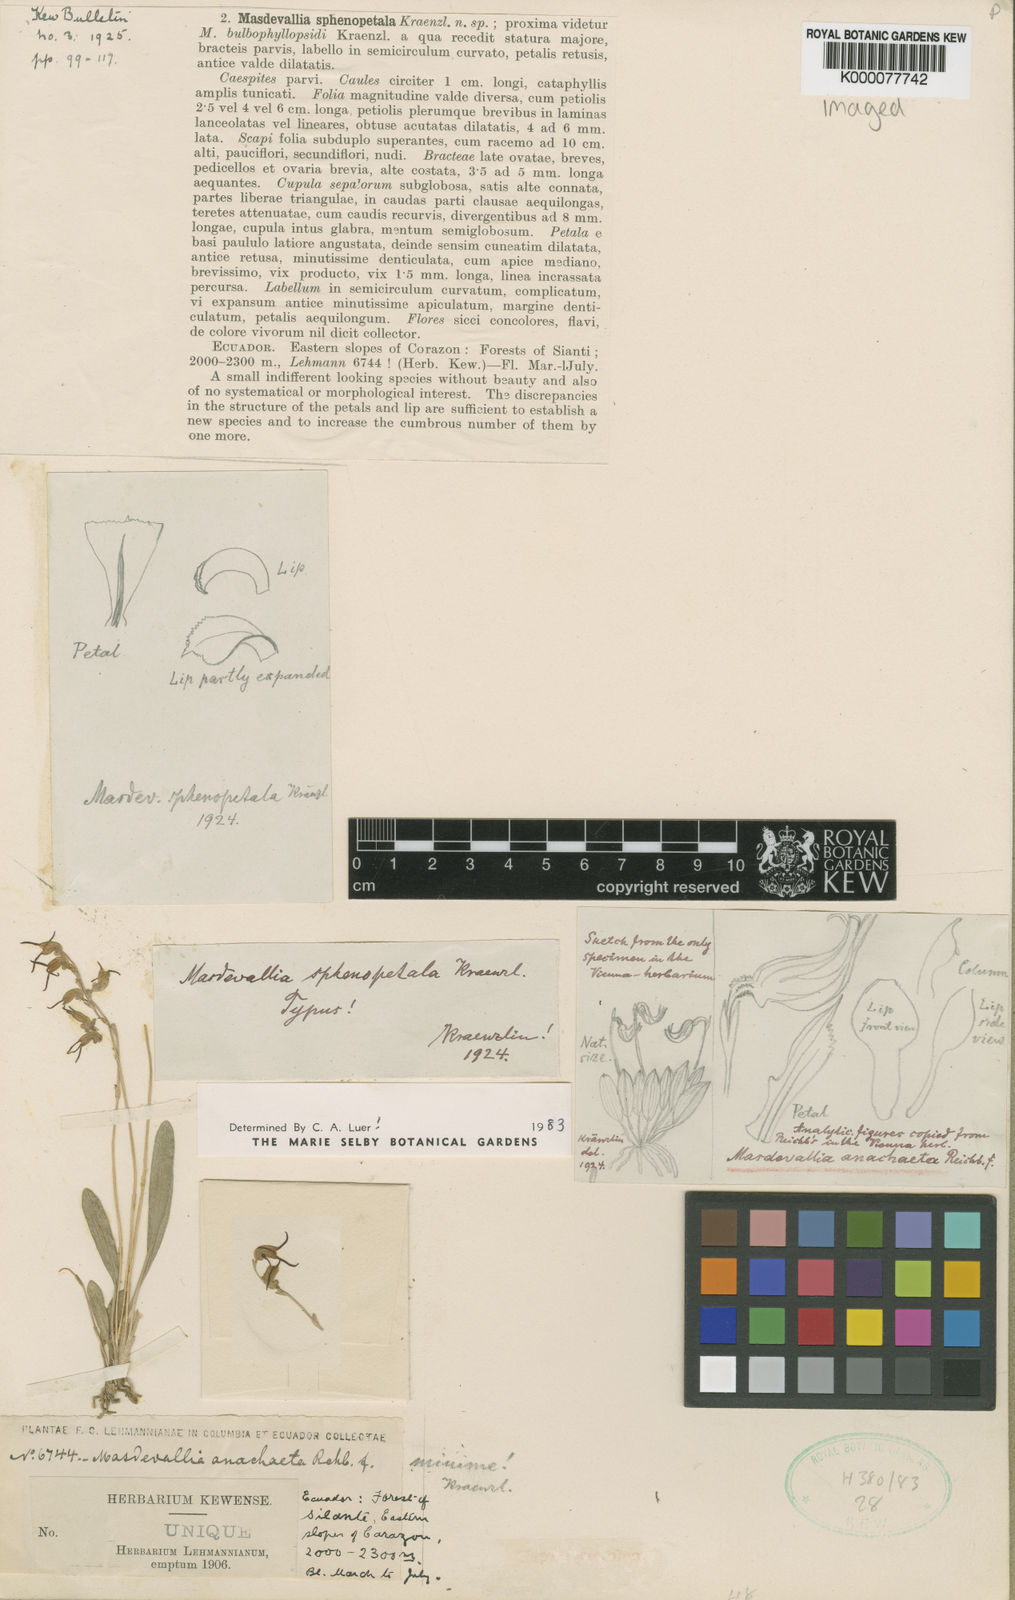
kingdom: Plantae
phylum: Tracheophyta
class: Liliopsida
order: Asparagales
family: Orchidaceae
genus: Masdevallia
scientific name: Masdevallia corazonica
